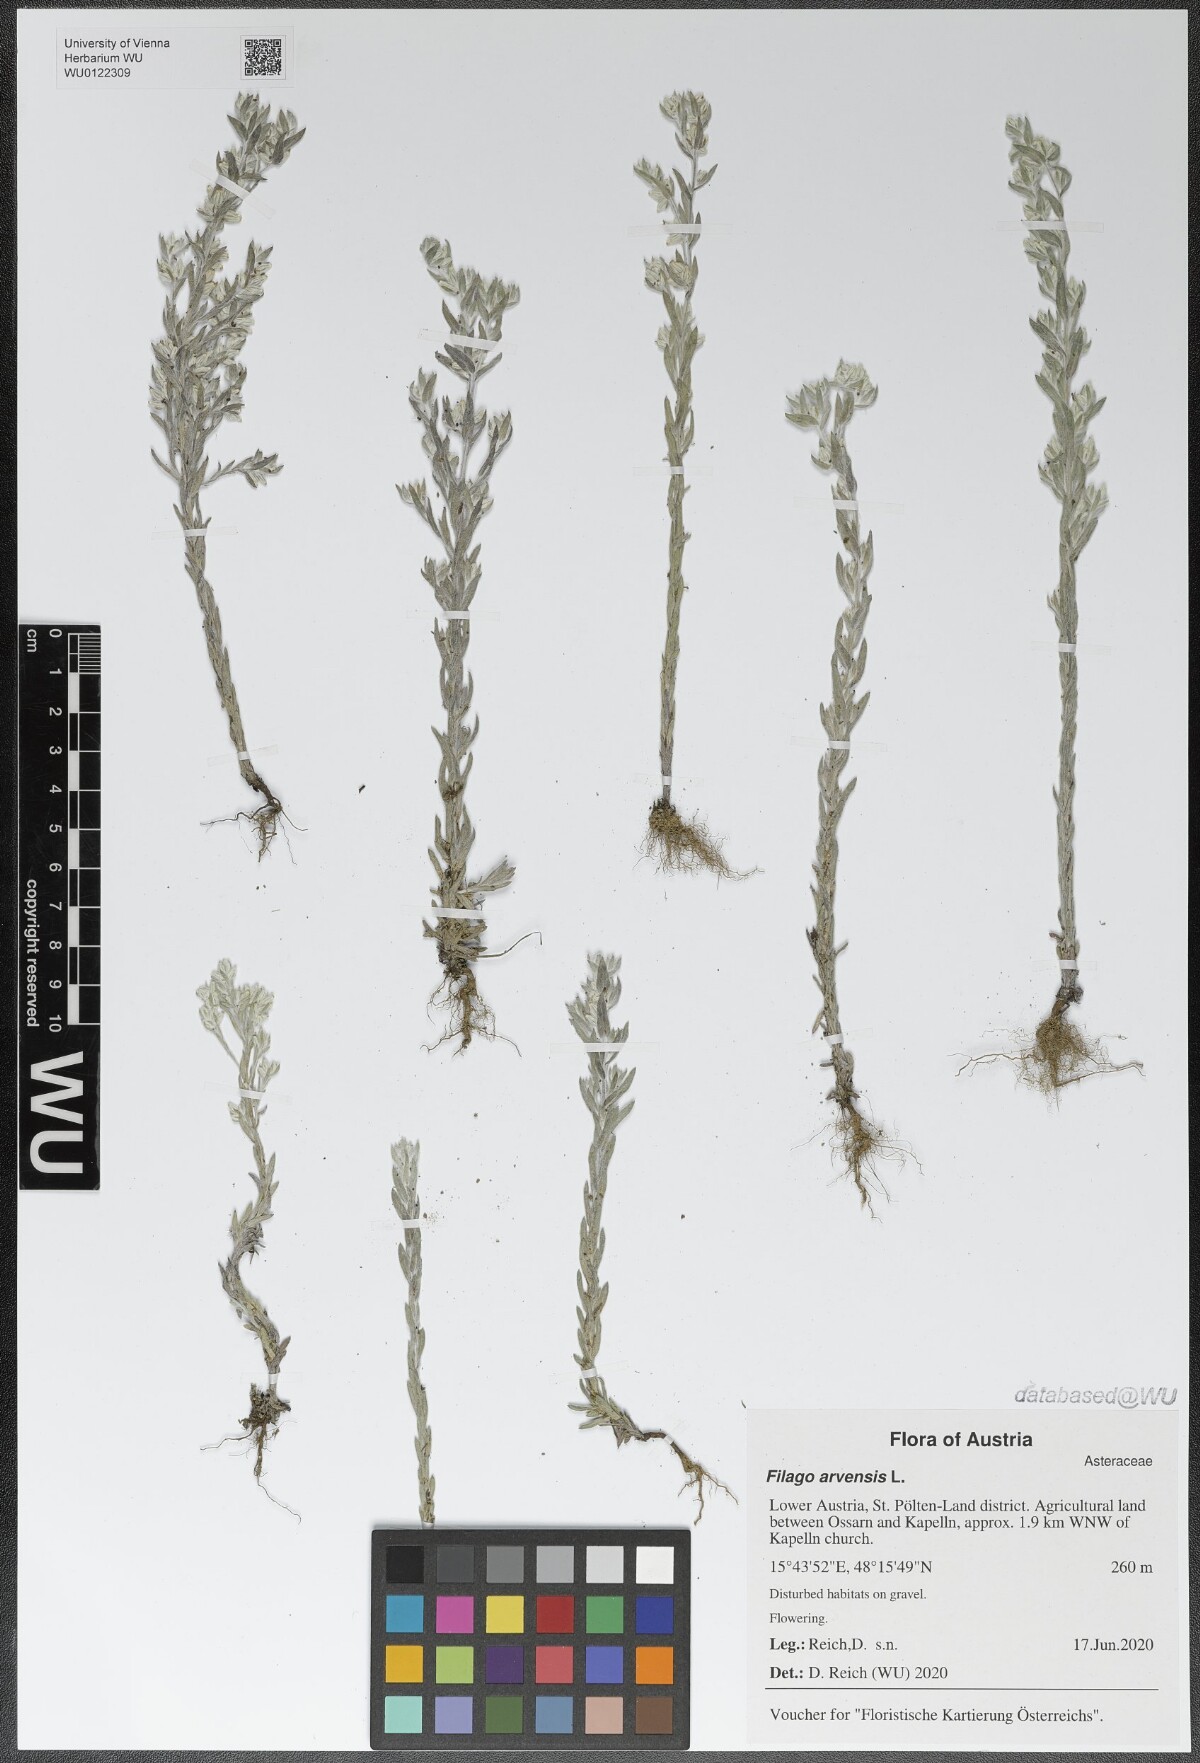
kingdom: Plantae
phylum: Tracheophyta
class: Magnoliopsida
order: Asterales
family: Asteraceae
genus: Filago
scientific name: Filago arvensis
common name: Field cudweed
